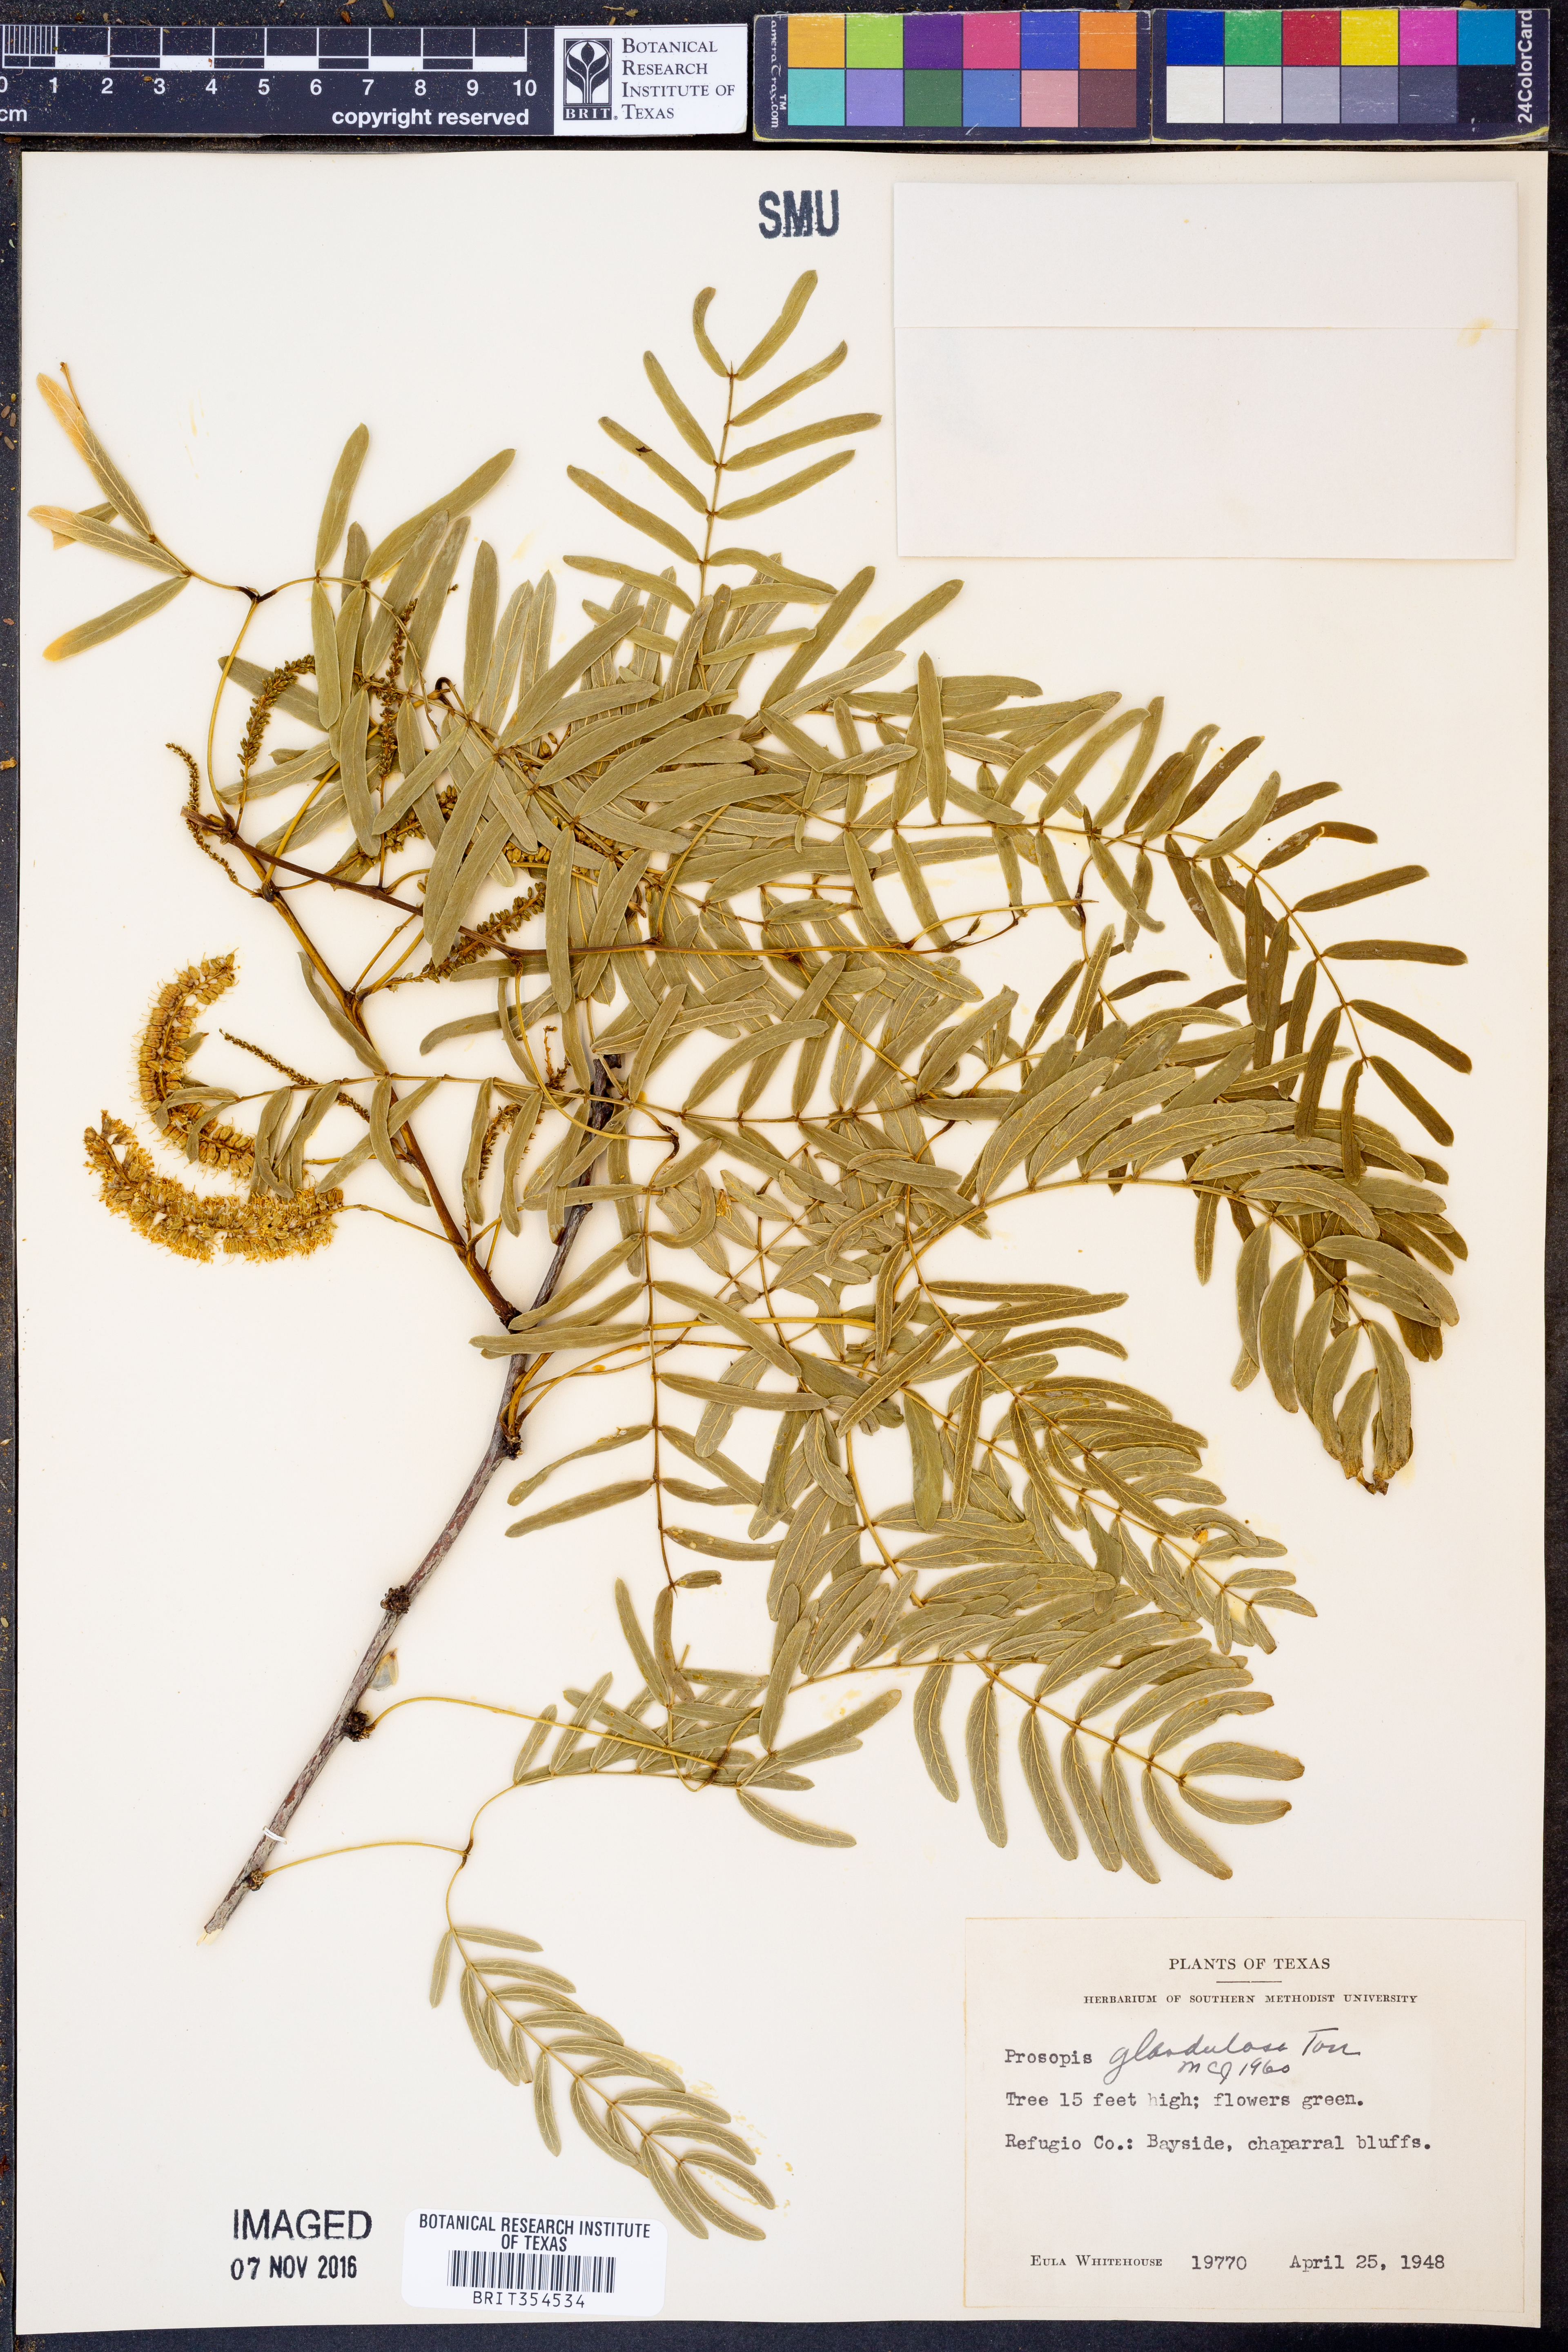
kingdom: Plantae
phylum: Tracheophyta
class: Magnoliopsida
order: Fabales
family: Fabaceae
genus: Prosopis
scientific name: Prosopis glandulosa
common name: Honey mesquite
